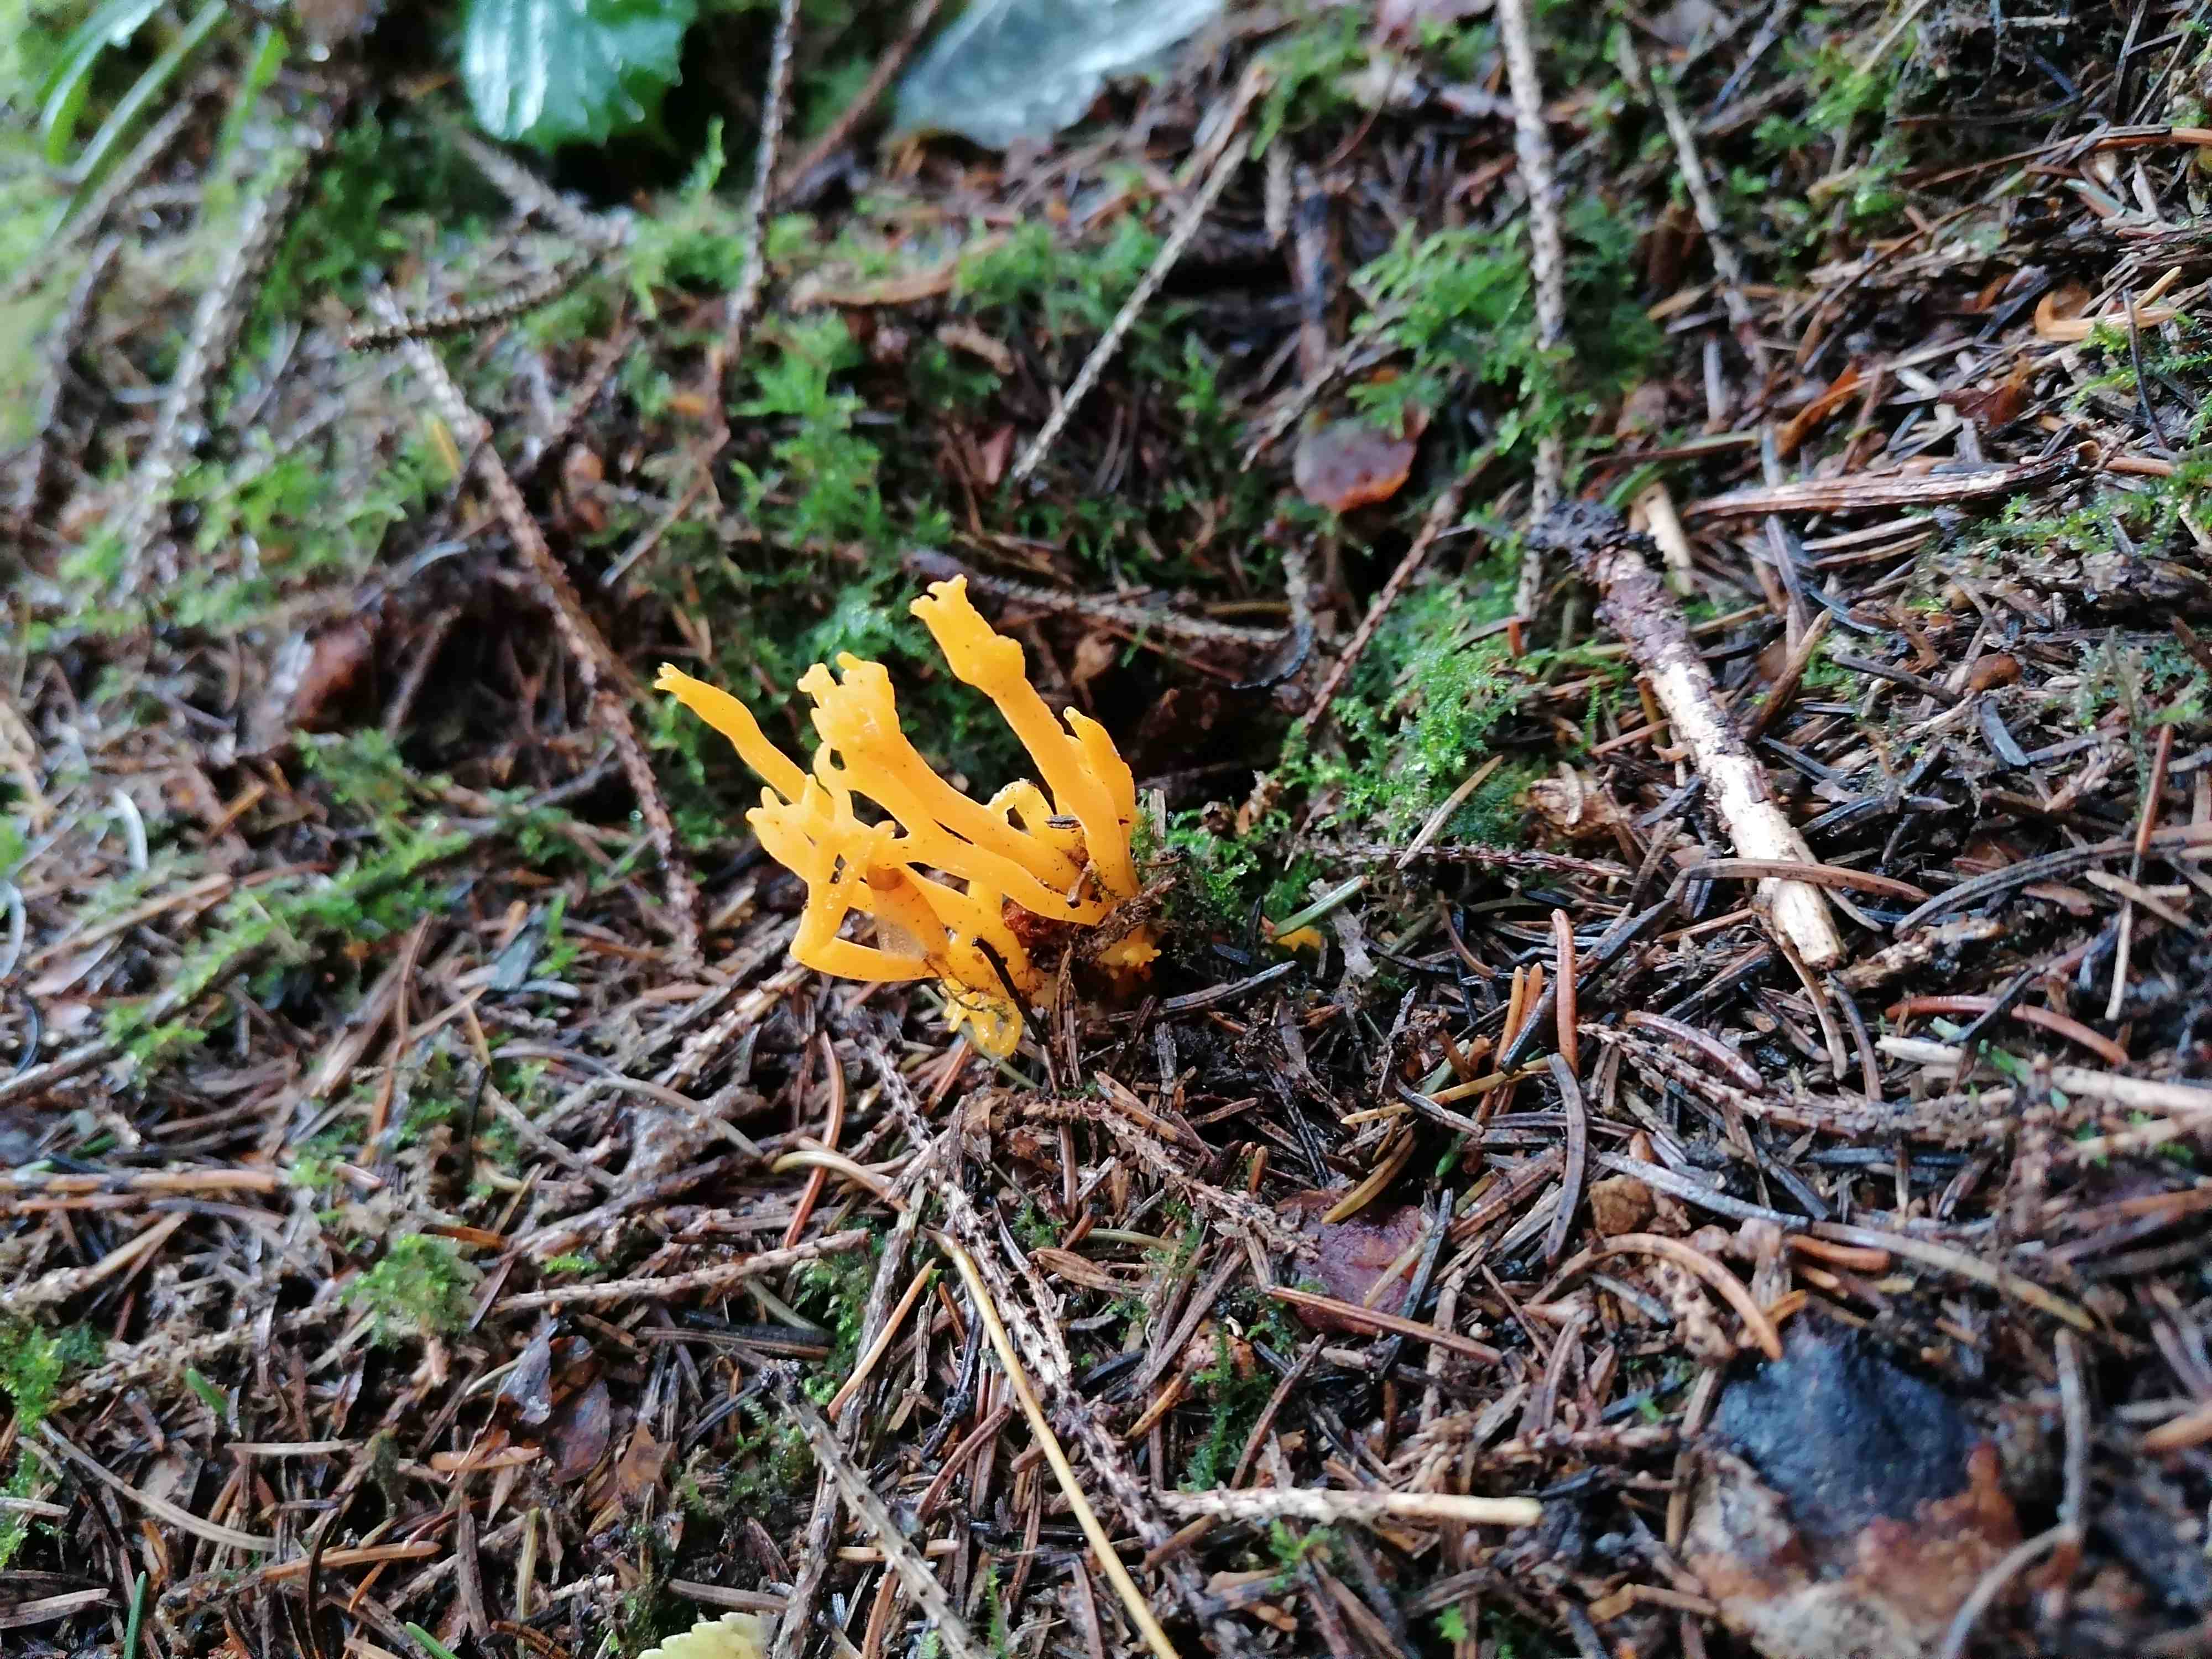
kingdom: Fungi
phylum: Basidiomycota
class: Dacrymycetes
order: Dacrymycetales
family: Dacrymycetaceae
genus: Calocera
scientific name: Calocera viscosa
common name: almindelig guldgaffel
